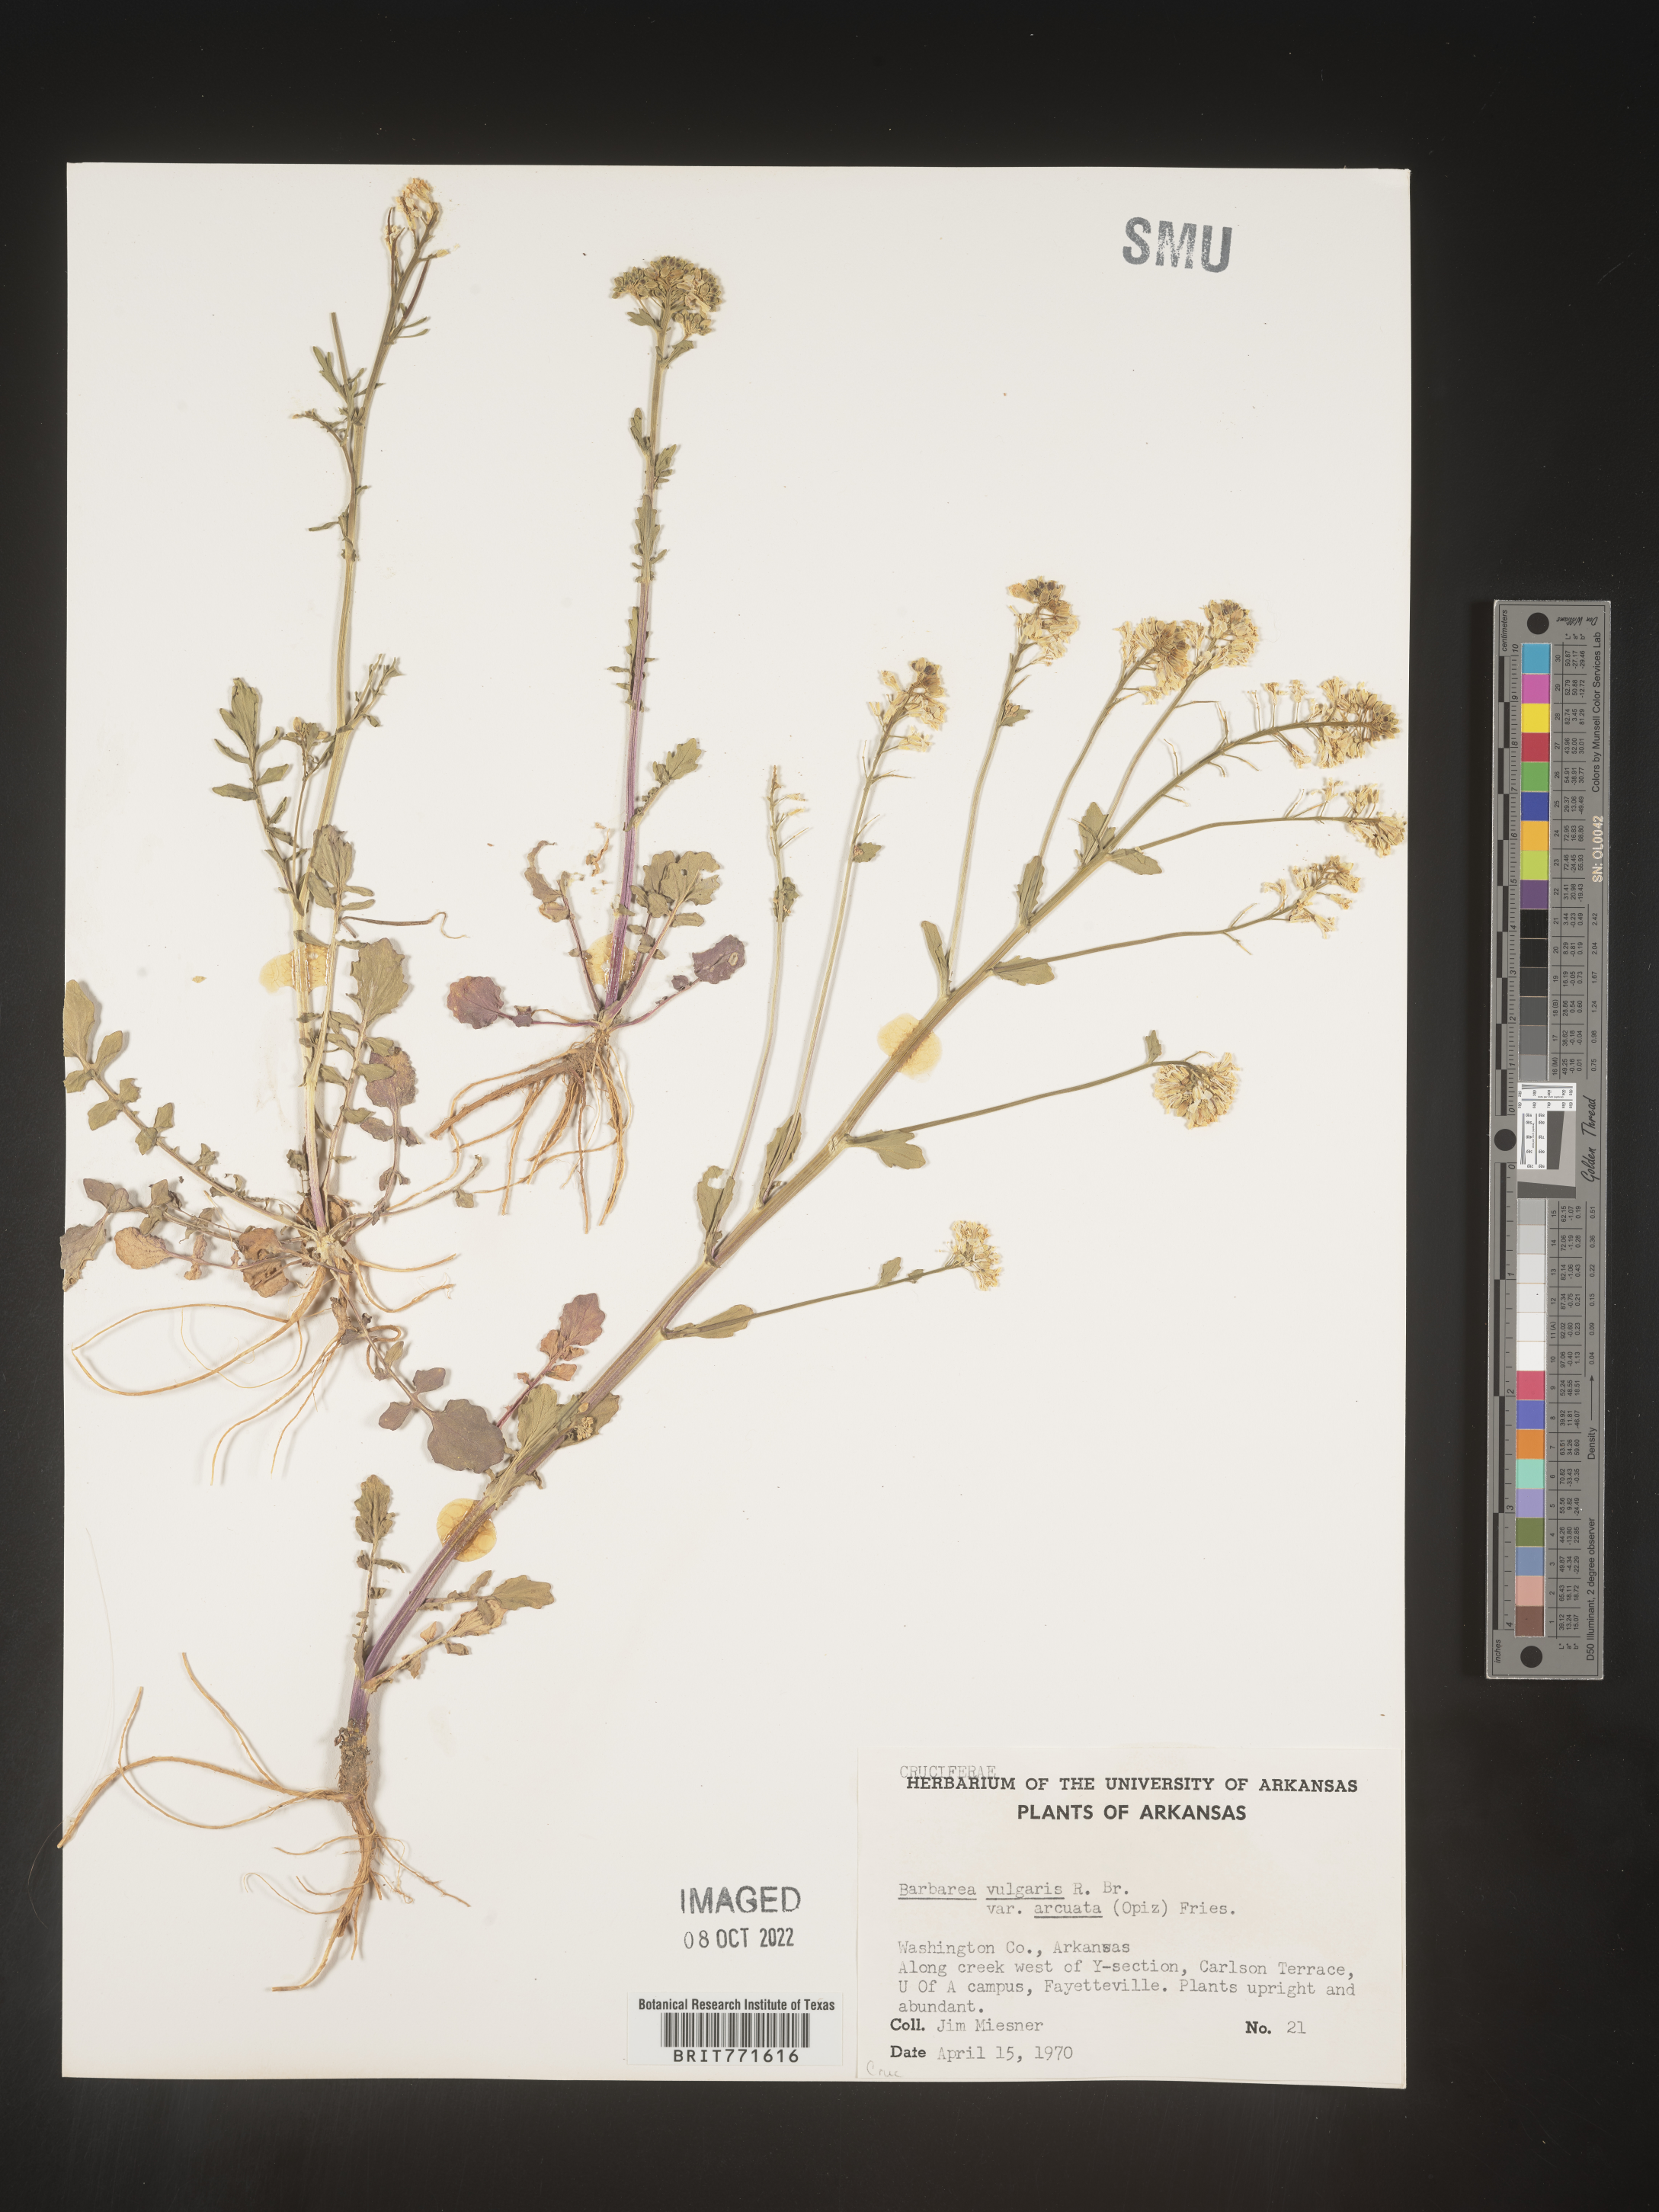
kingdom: Plantae
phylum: Tracheophyta
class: Magnoliopsida
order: Brassicales
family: Brassicaceae
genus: Barbarea
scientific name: Barbarea vulgaris
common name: Cressy-greens
